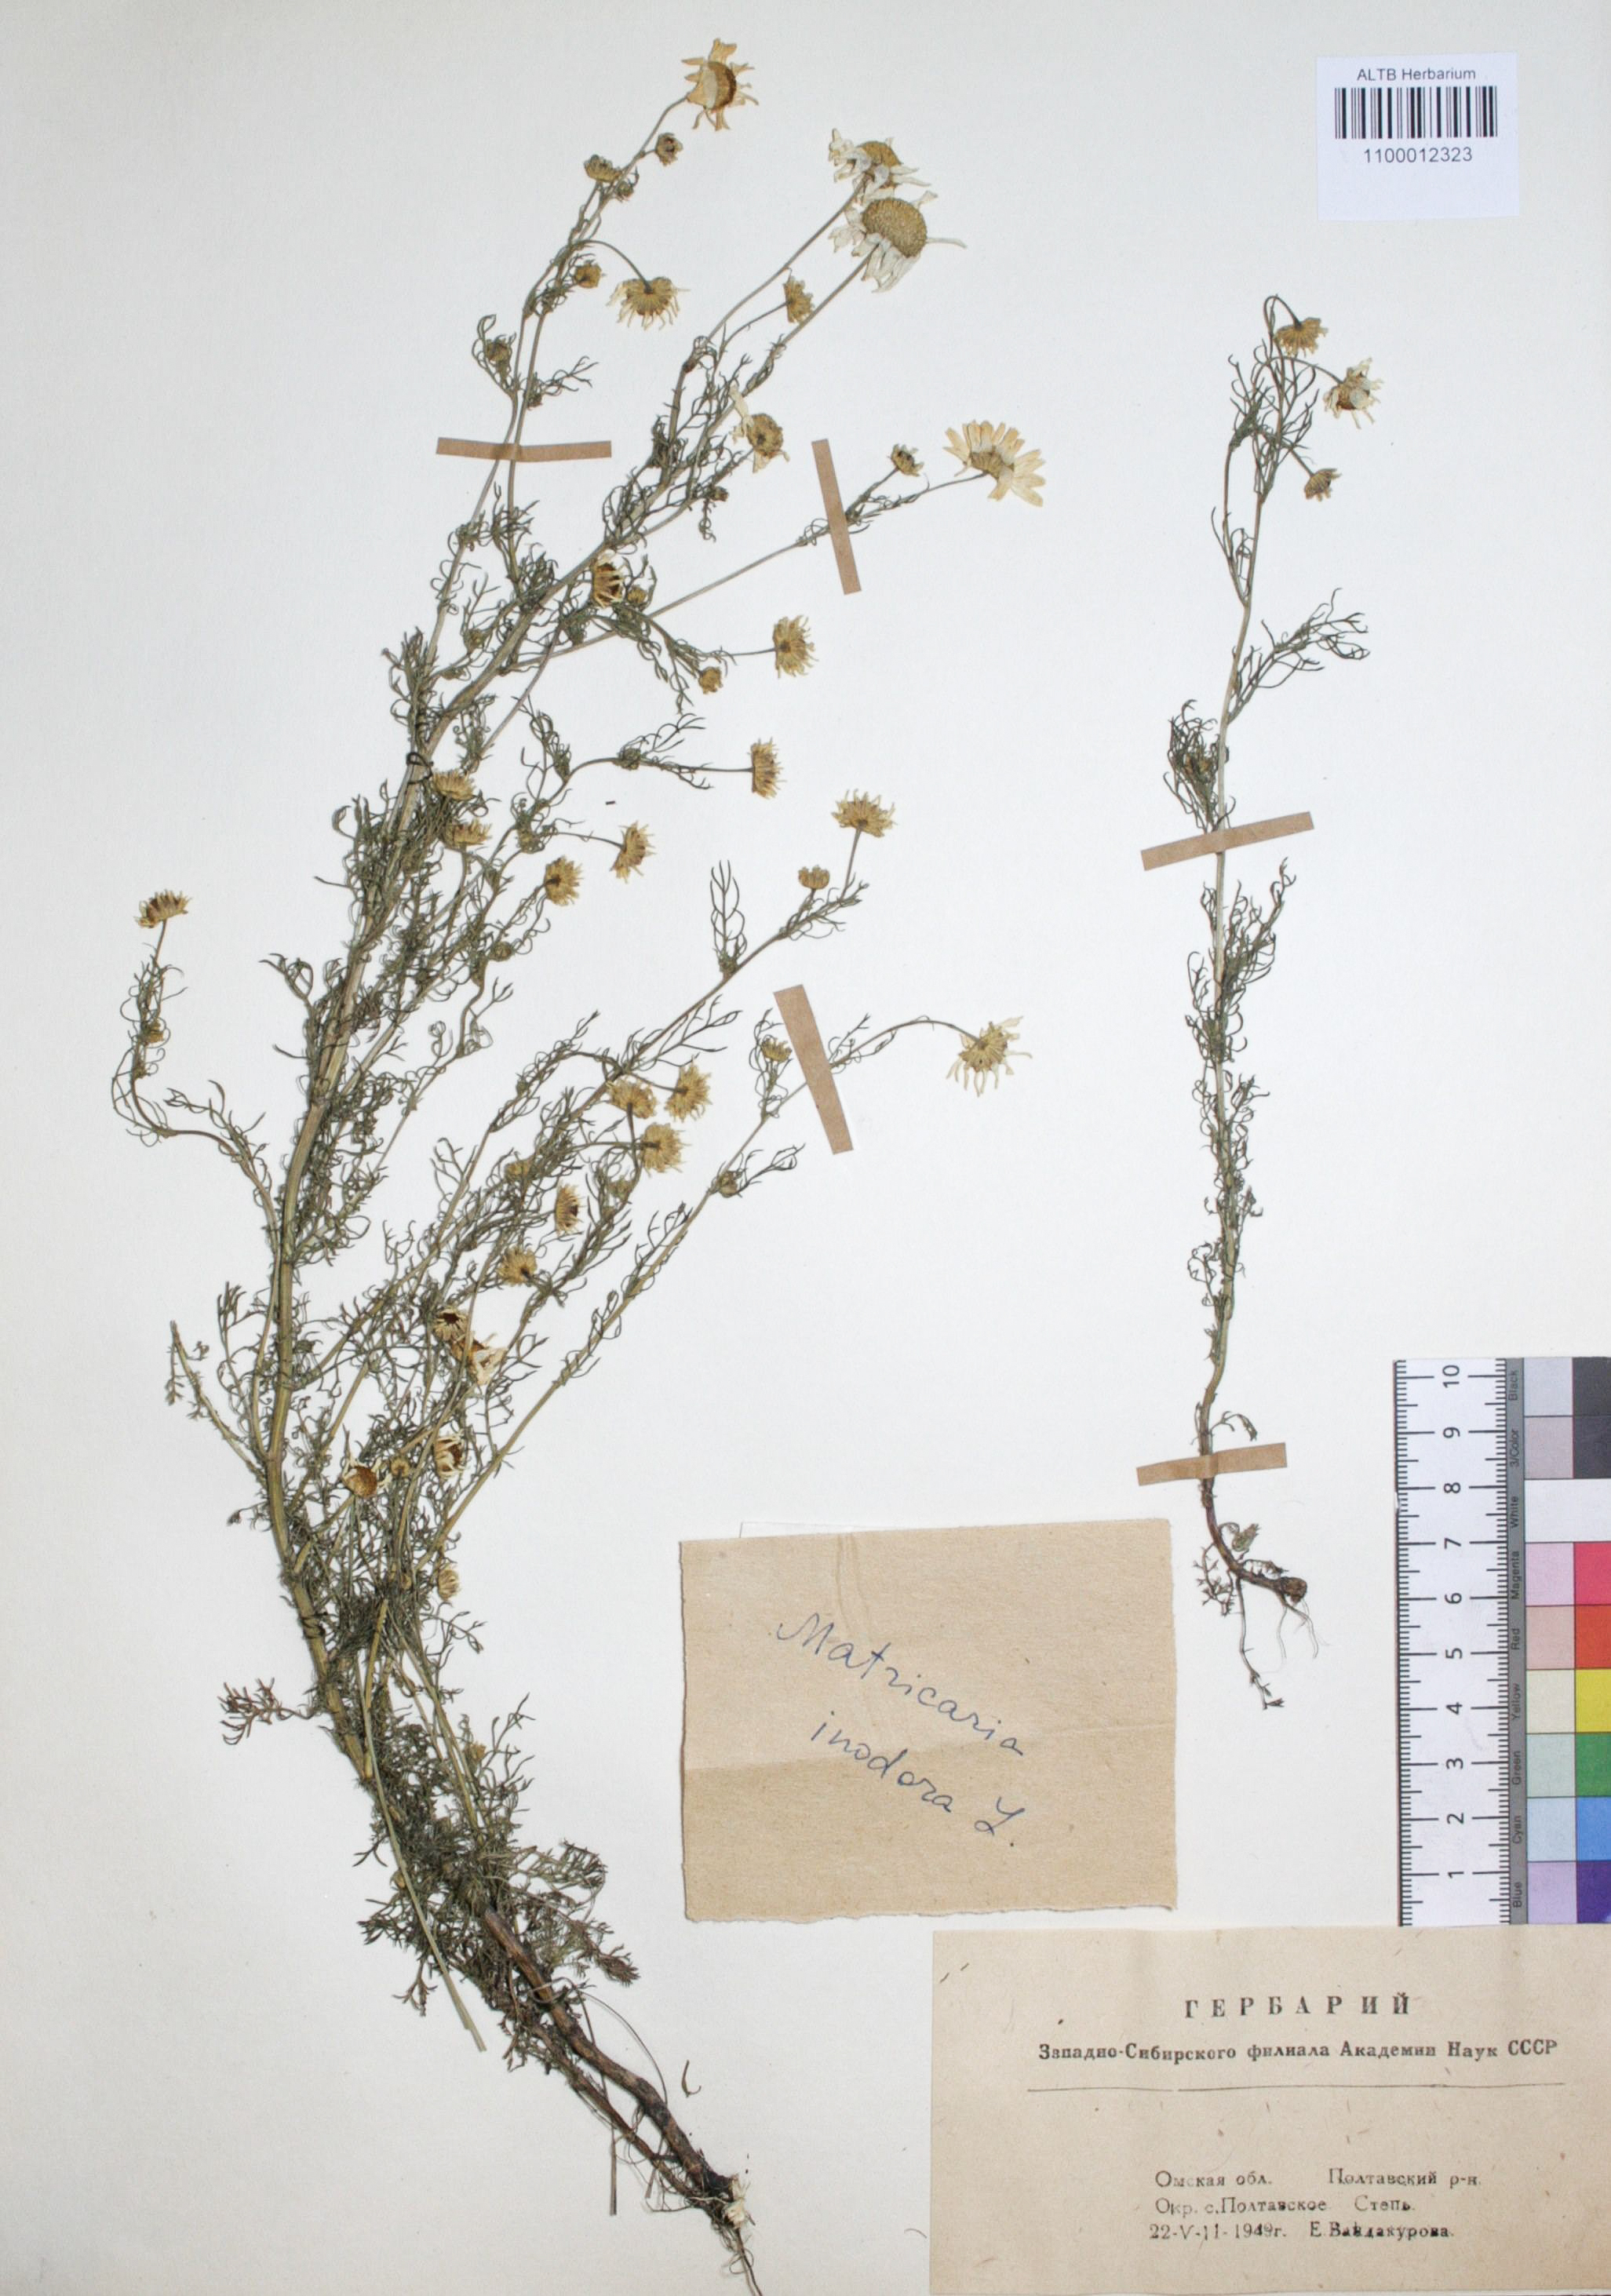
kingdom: Plantae
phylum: Tracheophyta
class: Magnoliopsida
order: Asterales
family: Asteraceae
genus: Tripleurospermum
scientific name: Tripleurospermum inodorum
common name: Scentless mayweed
